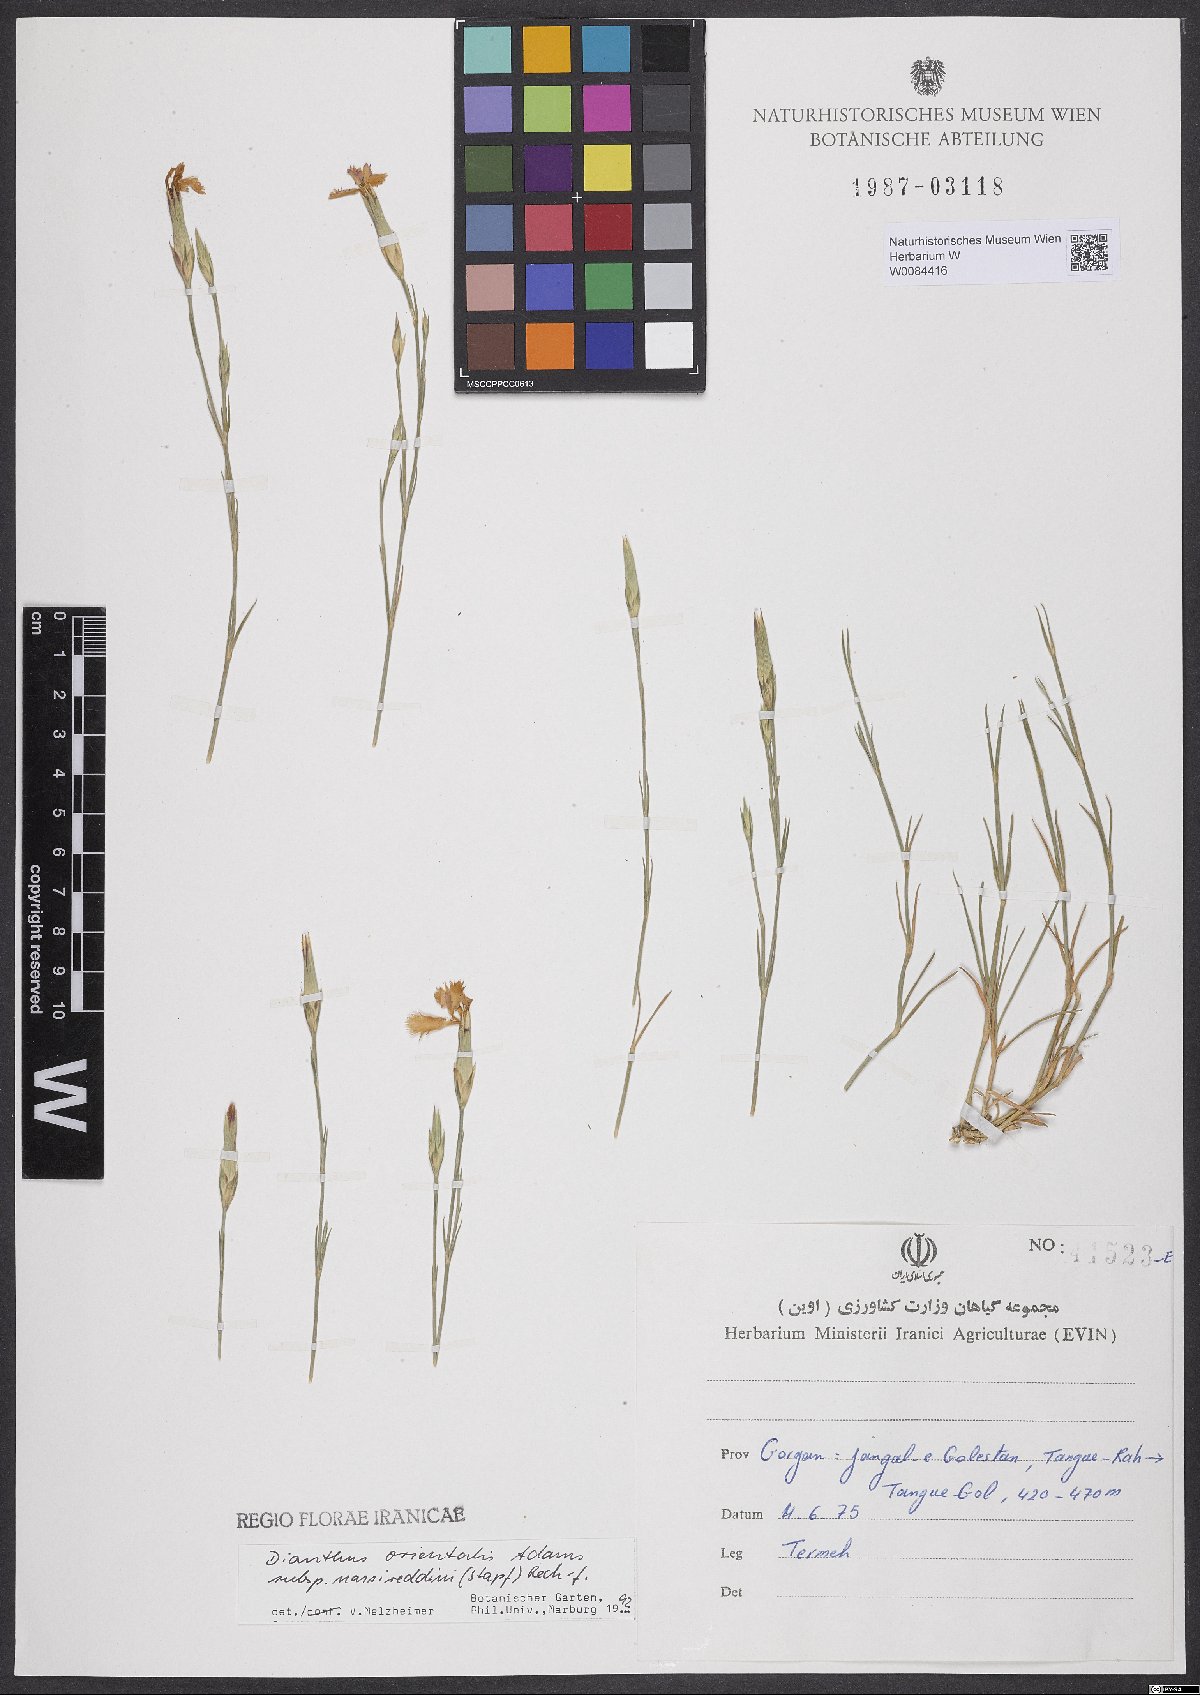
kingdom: Plantae
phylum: Tracheophyta
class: Magnoliopsida
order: Caryophyllales
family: Caryophyllaceae
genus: Dianthus
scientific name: Dianthus orientalis
